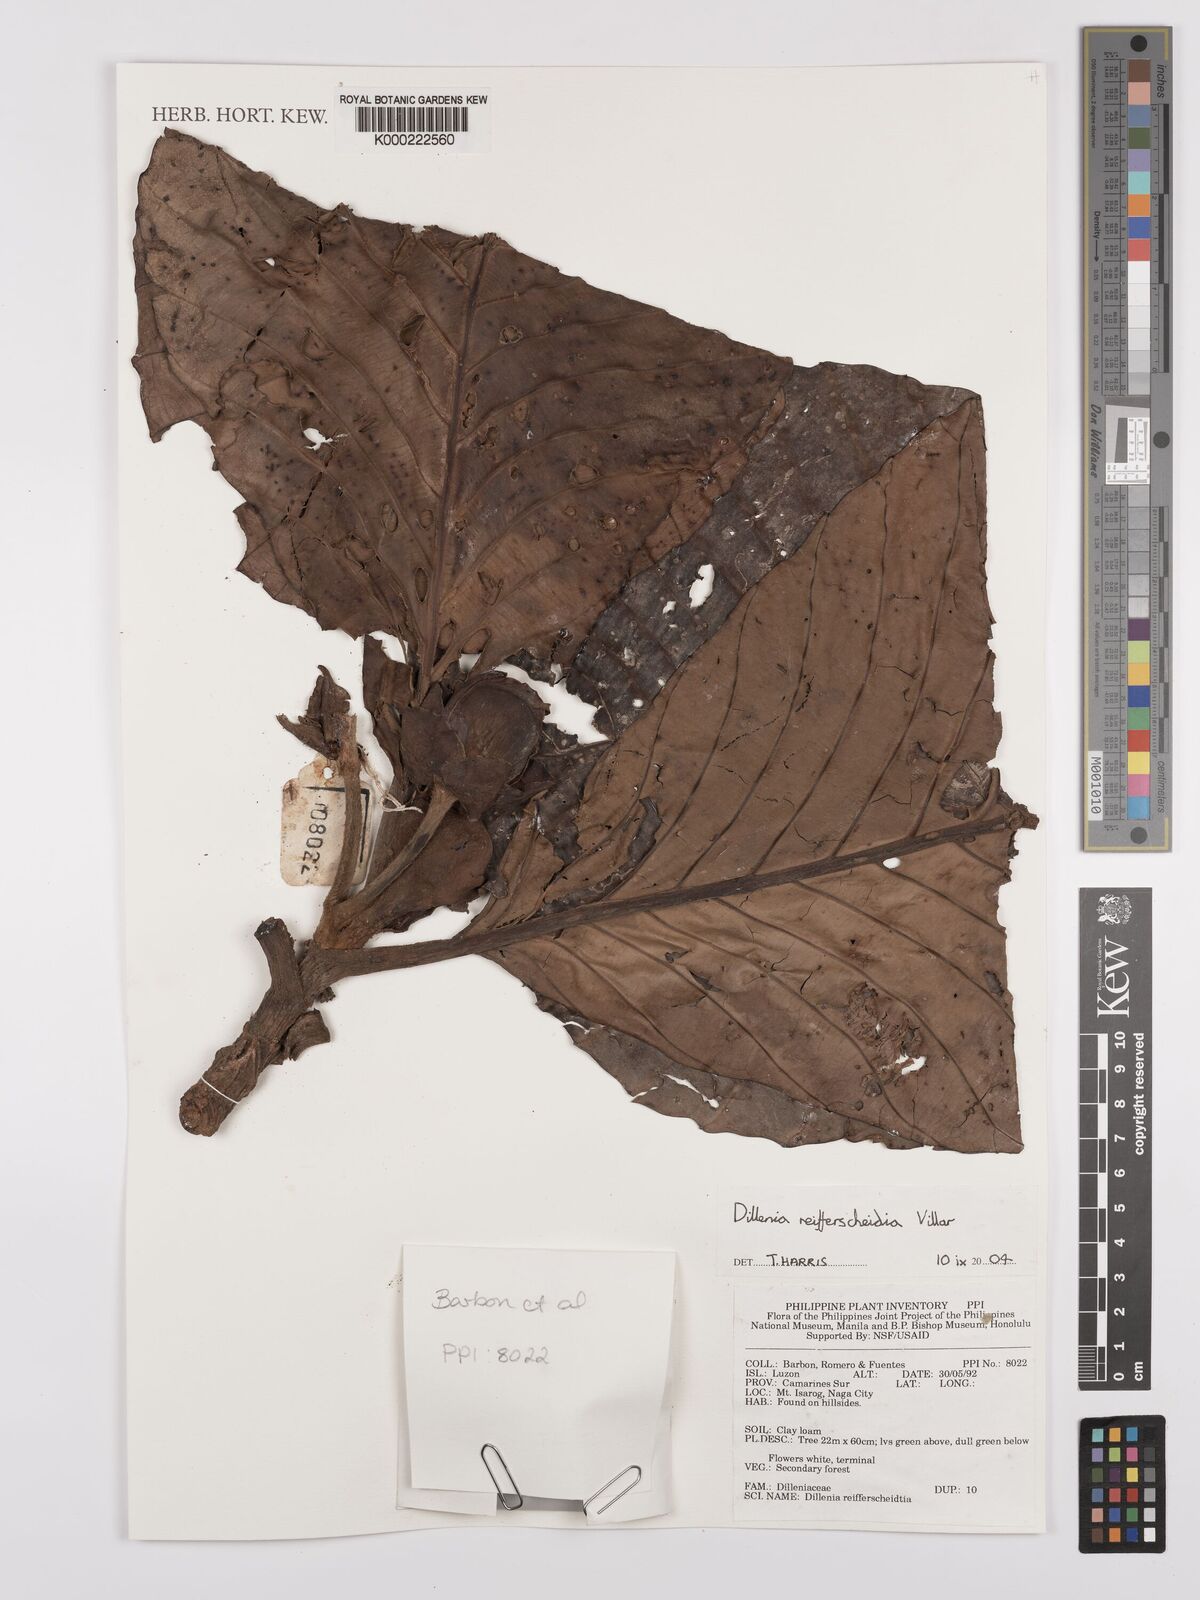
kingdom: Plantae
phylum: Tracheophyta
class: Magnoliopsida
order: Dilleniales
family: Dilleniaceae
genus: Dillenia
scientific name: Dillenia reifferscheidia
